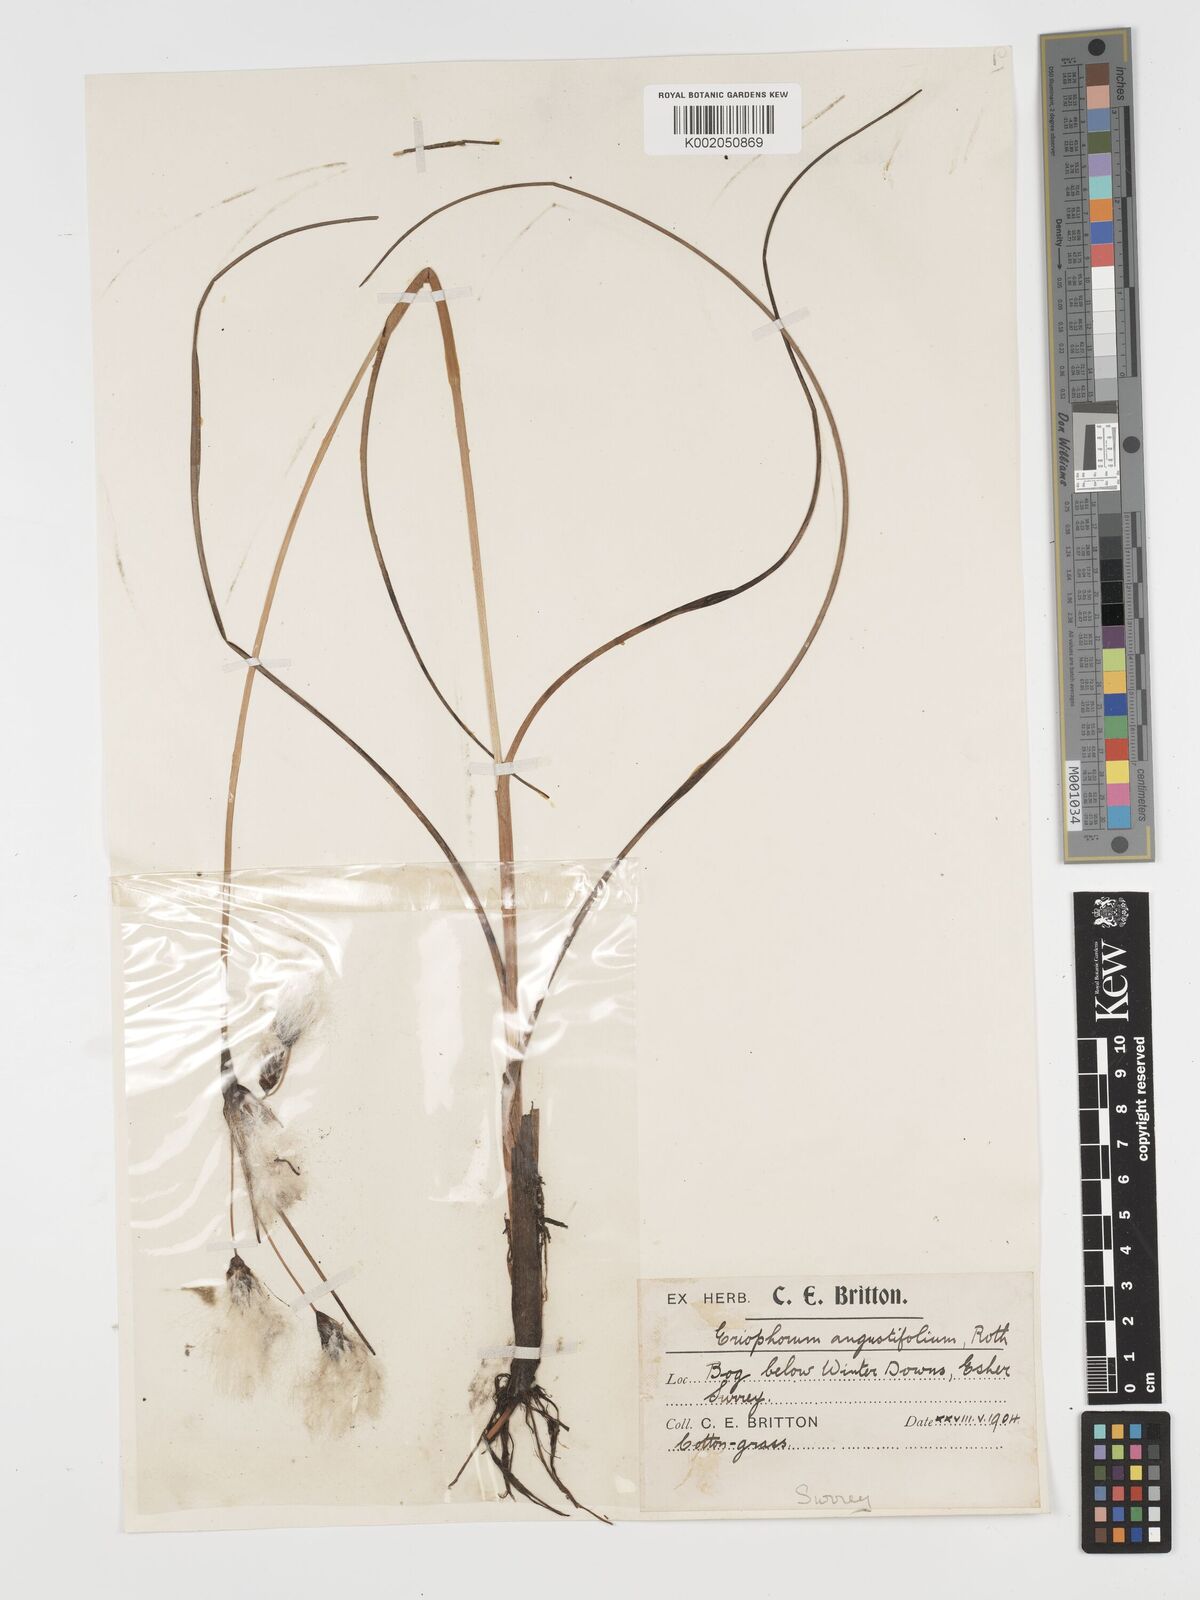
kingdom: Plantae
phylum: Tracheophyta
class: Liliopsida
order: Poales
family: Cyperaceae
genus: Eriophorum
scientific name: Eriophorum angustifolium
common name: Common cottongrass
